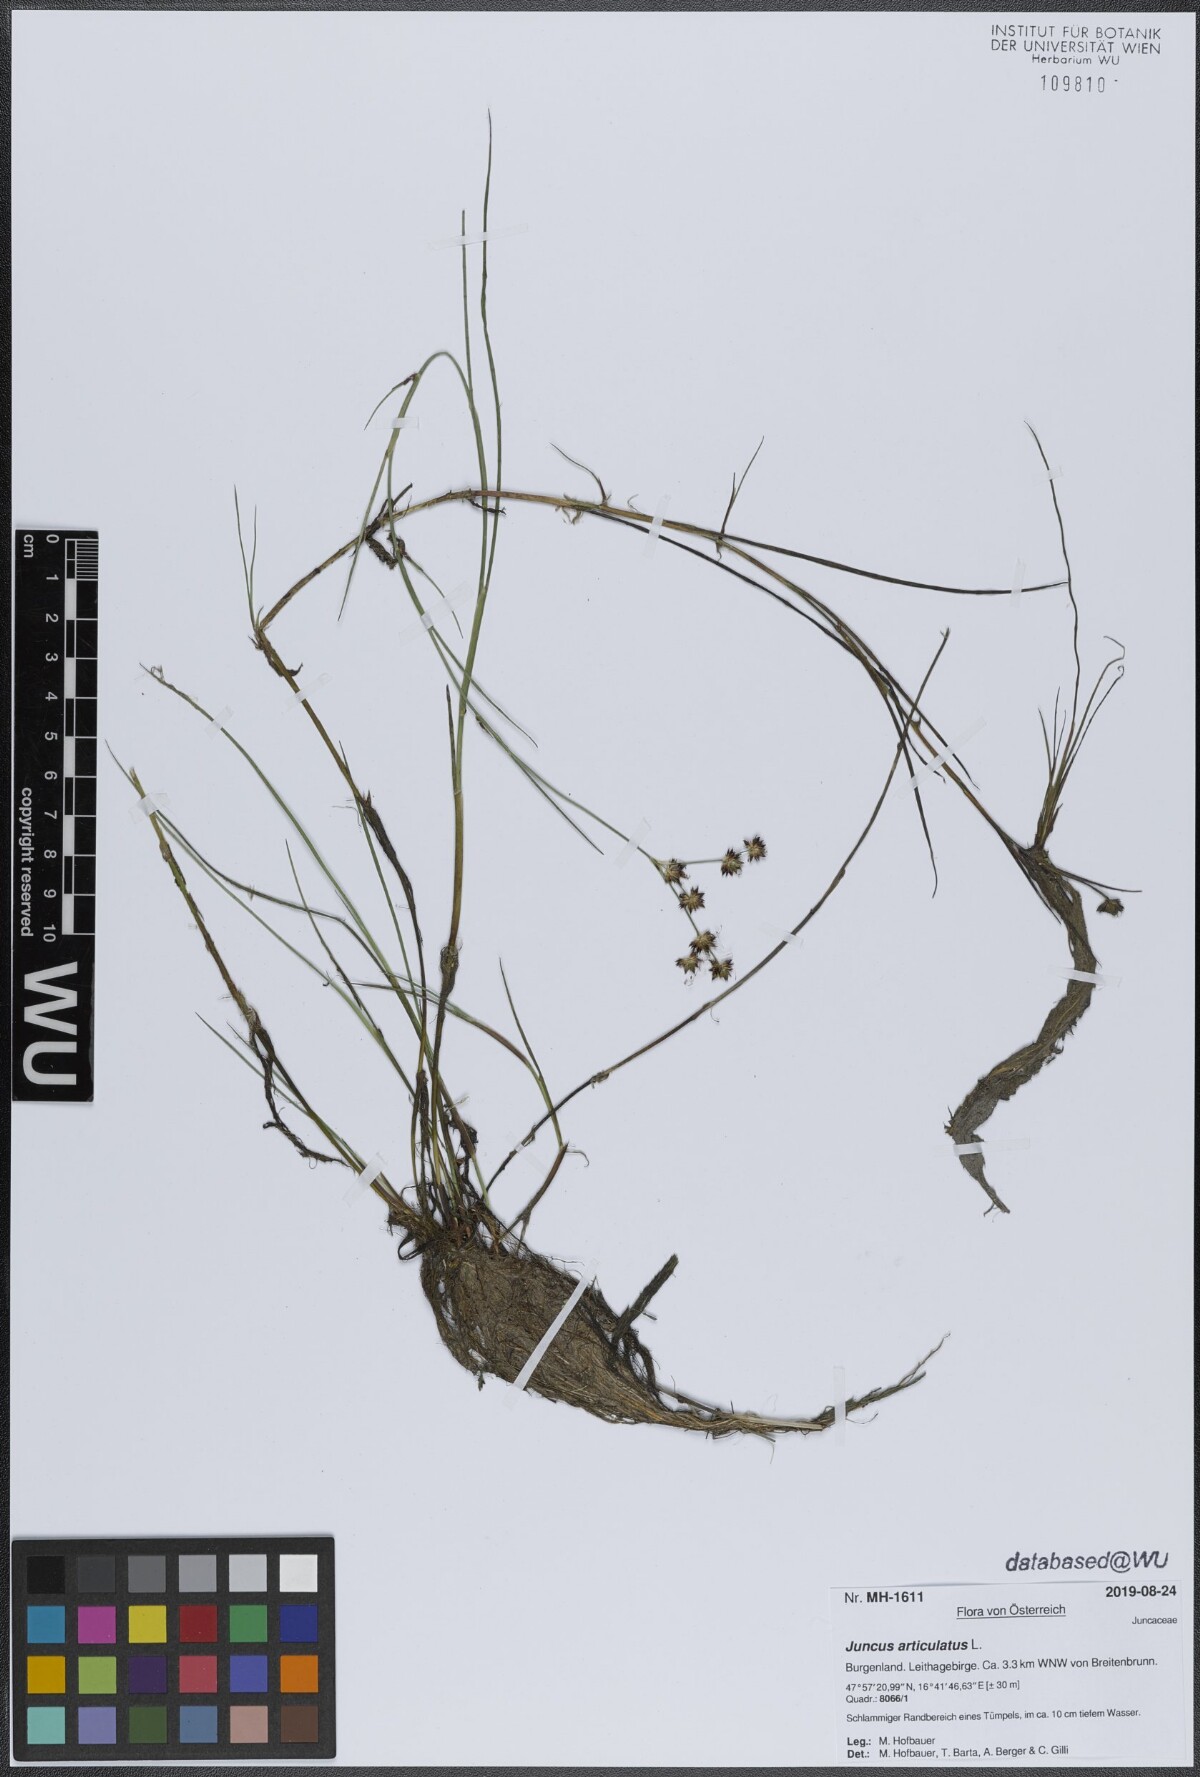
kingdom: Plantae
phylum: Tracheophyta
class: Liliopsida
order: Poales
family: Juncaceae
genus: Juncus
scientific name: Juncus articulatus
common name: Jointed rush
